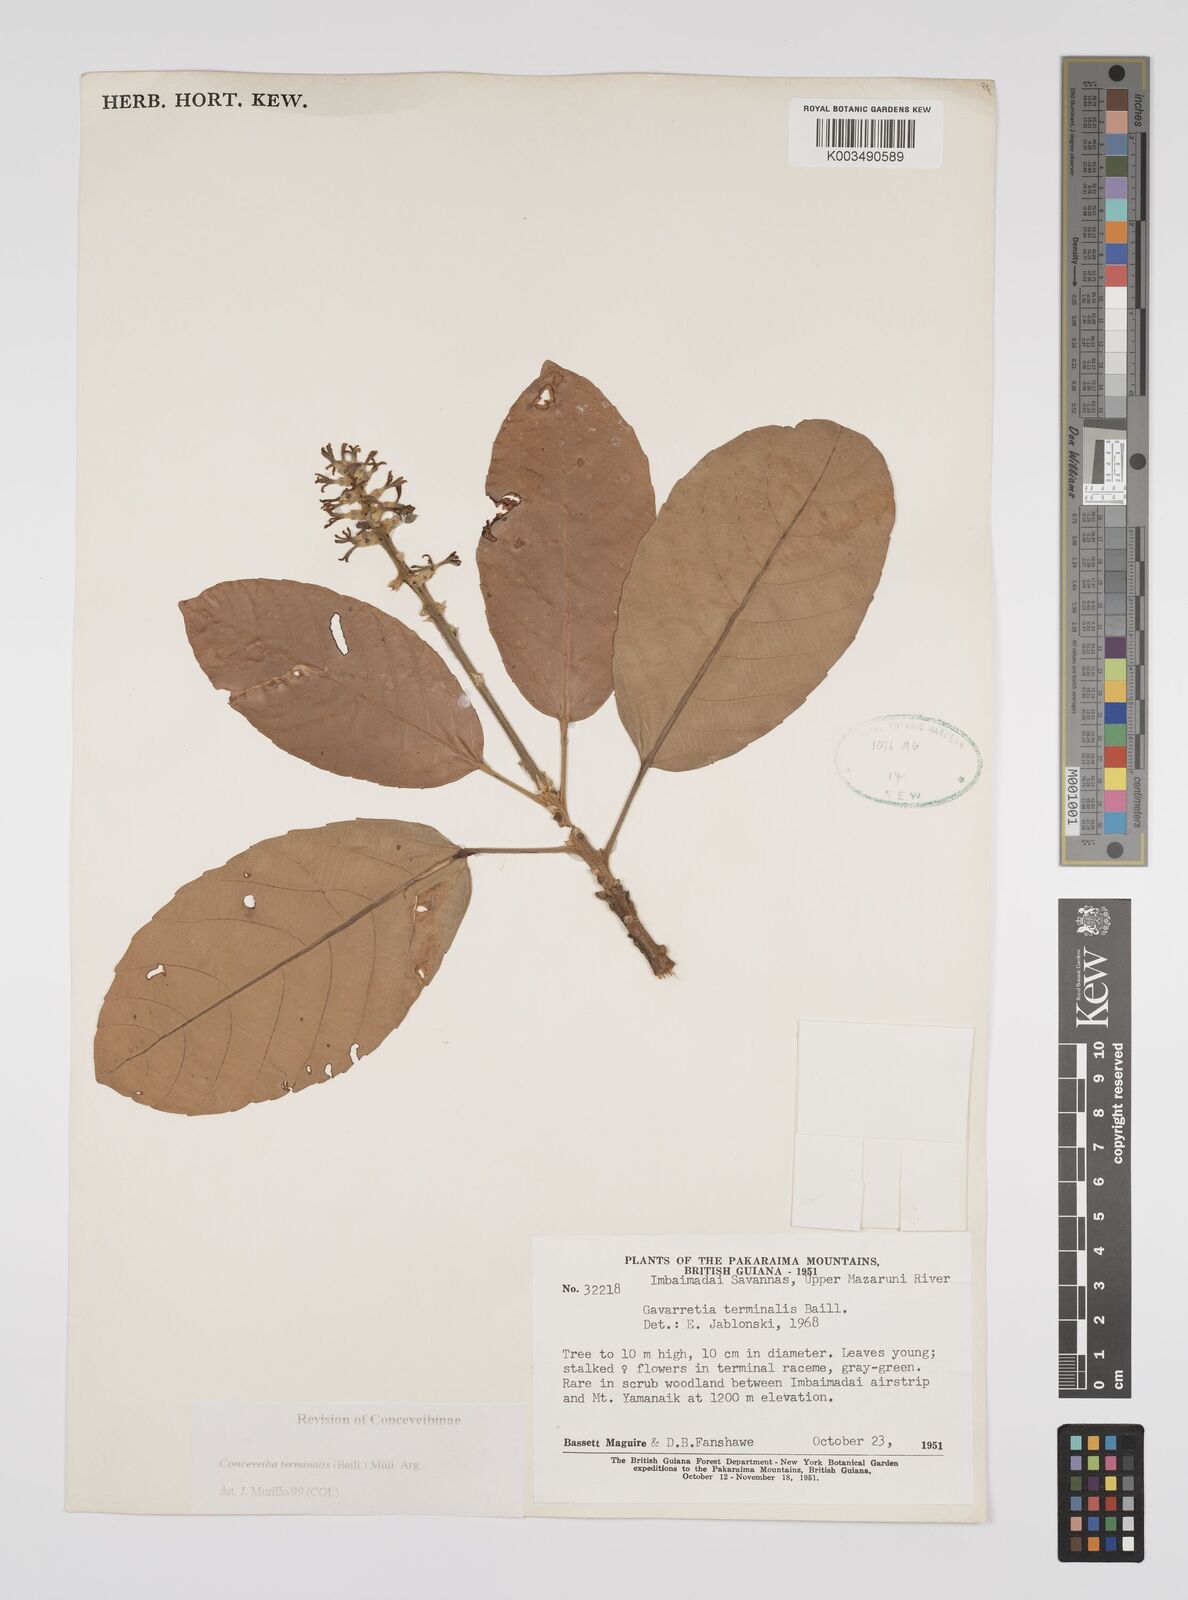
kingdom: Plantae
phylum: Tracheophyta
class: Magnoliopsida
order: Malpighiales
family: Euphorbiaceae
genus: Conceveiba
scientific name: Conceveiba terminalis
